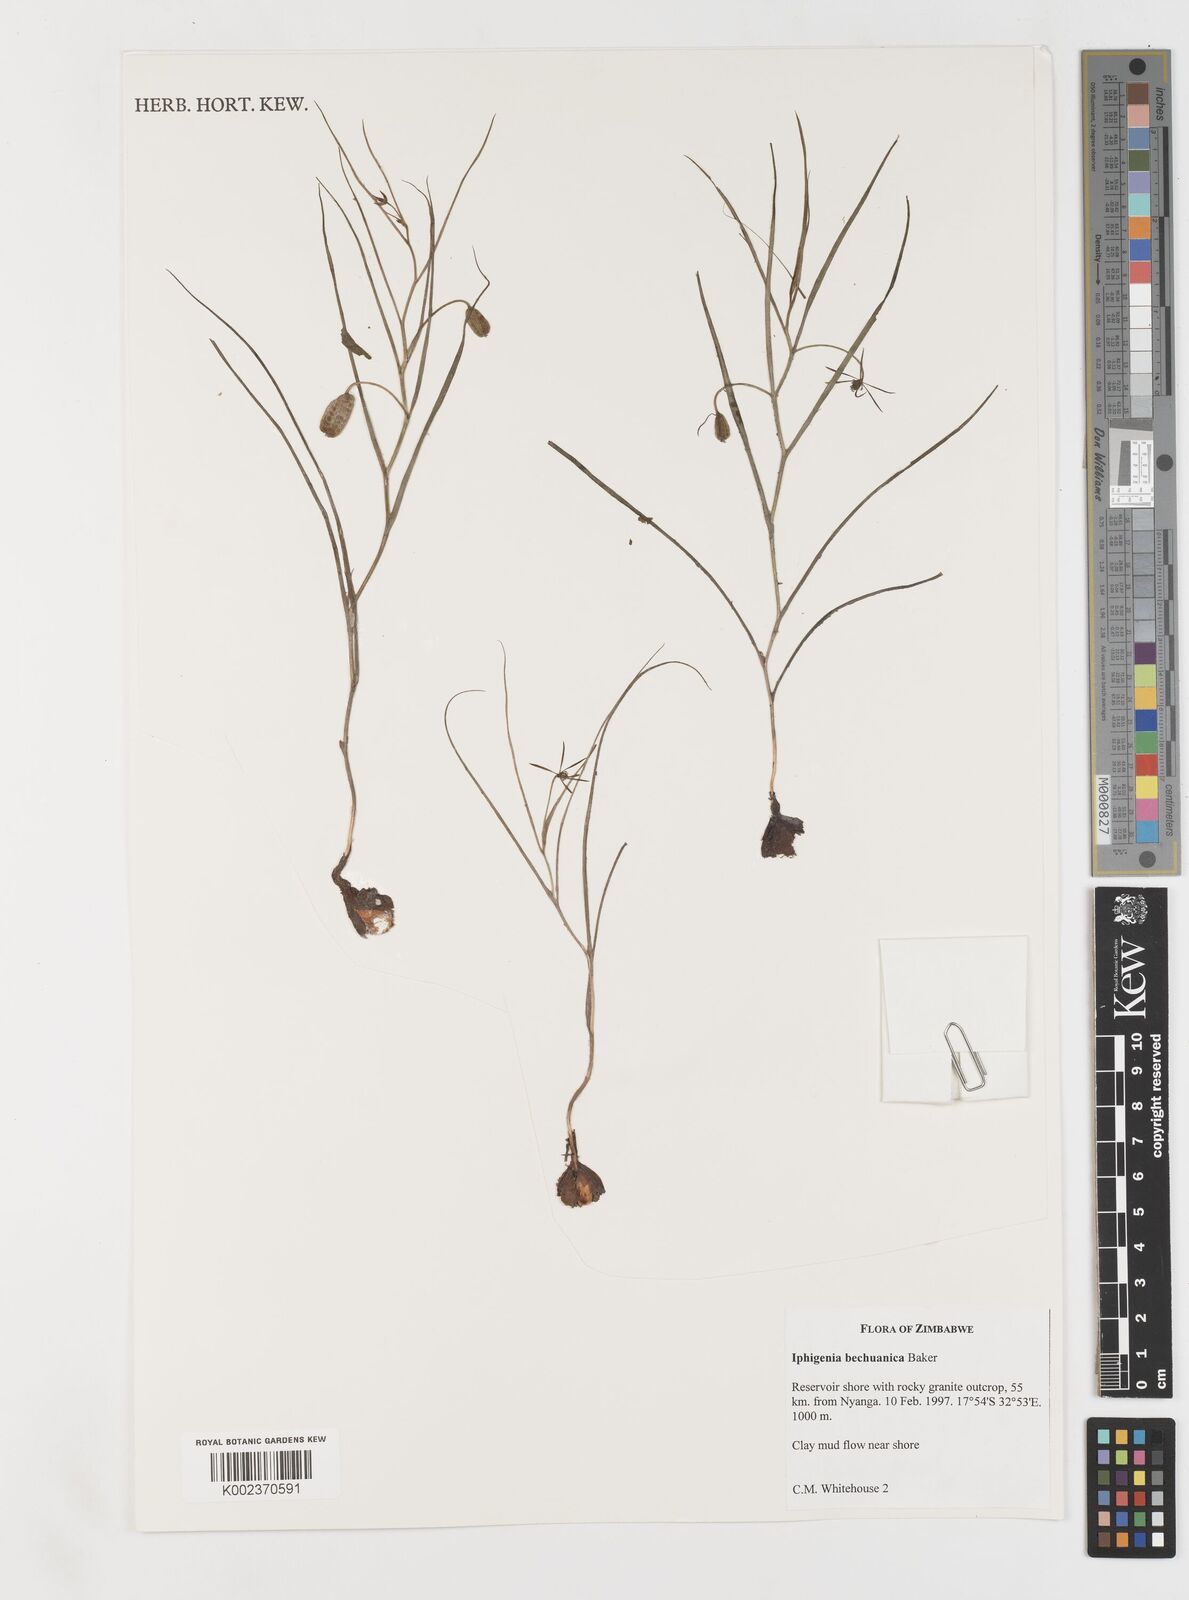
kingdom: Plantae
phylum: Tracheophyta
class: Liliopsida
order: Liliales
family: Colchicaceae
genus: Iphigenia
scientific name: Iphigenia oliveri
